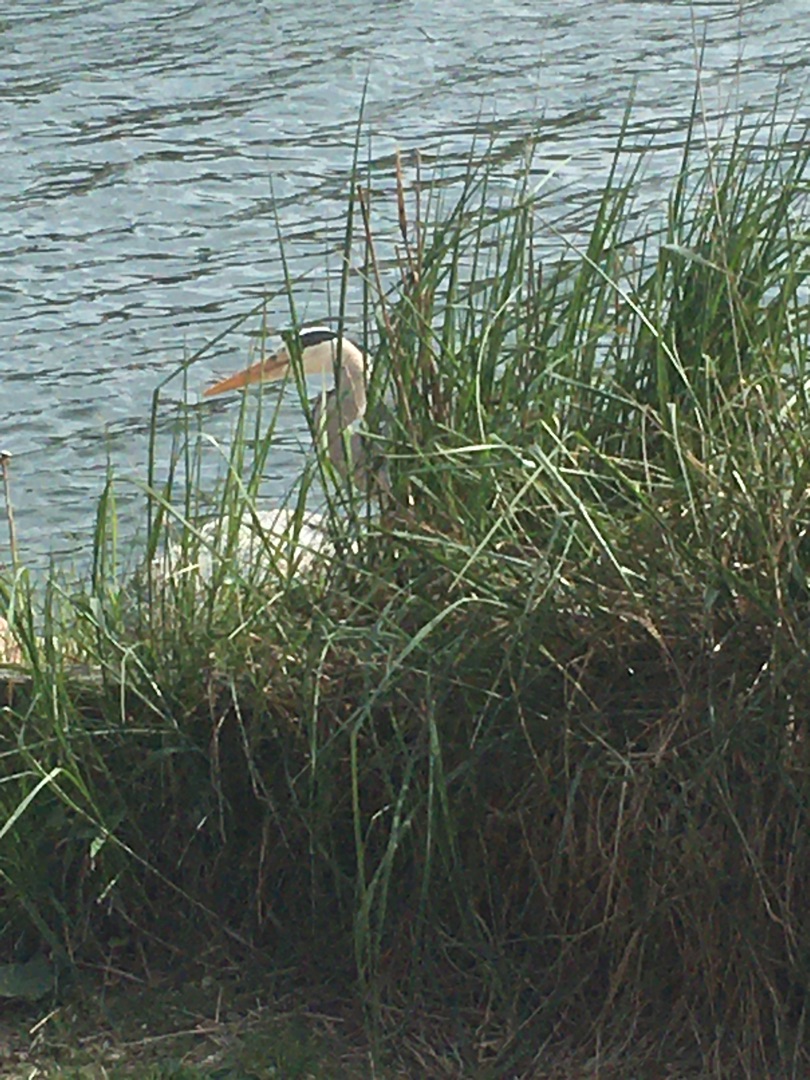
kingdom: Animalia
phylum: Chordata
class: Aves
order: Pelecaniformes
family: Ardeidae
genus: Ardea
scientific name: Ardea cinerea
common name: Fiskehejre
